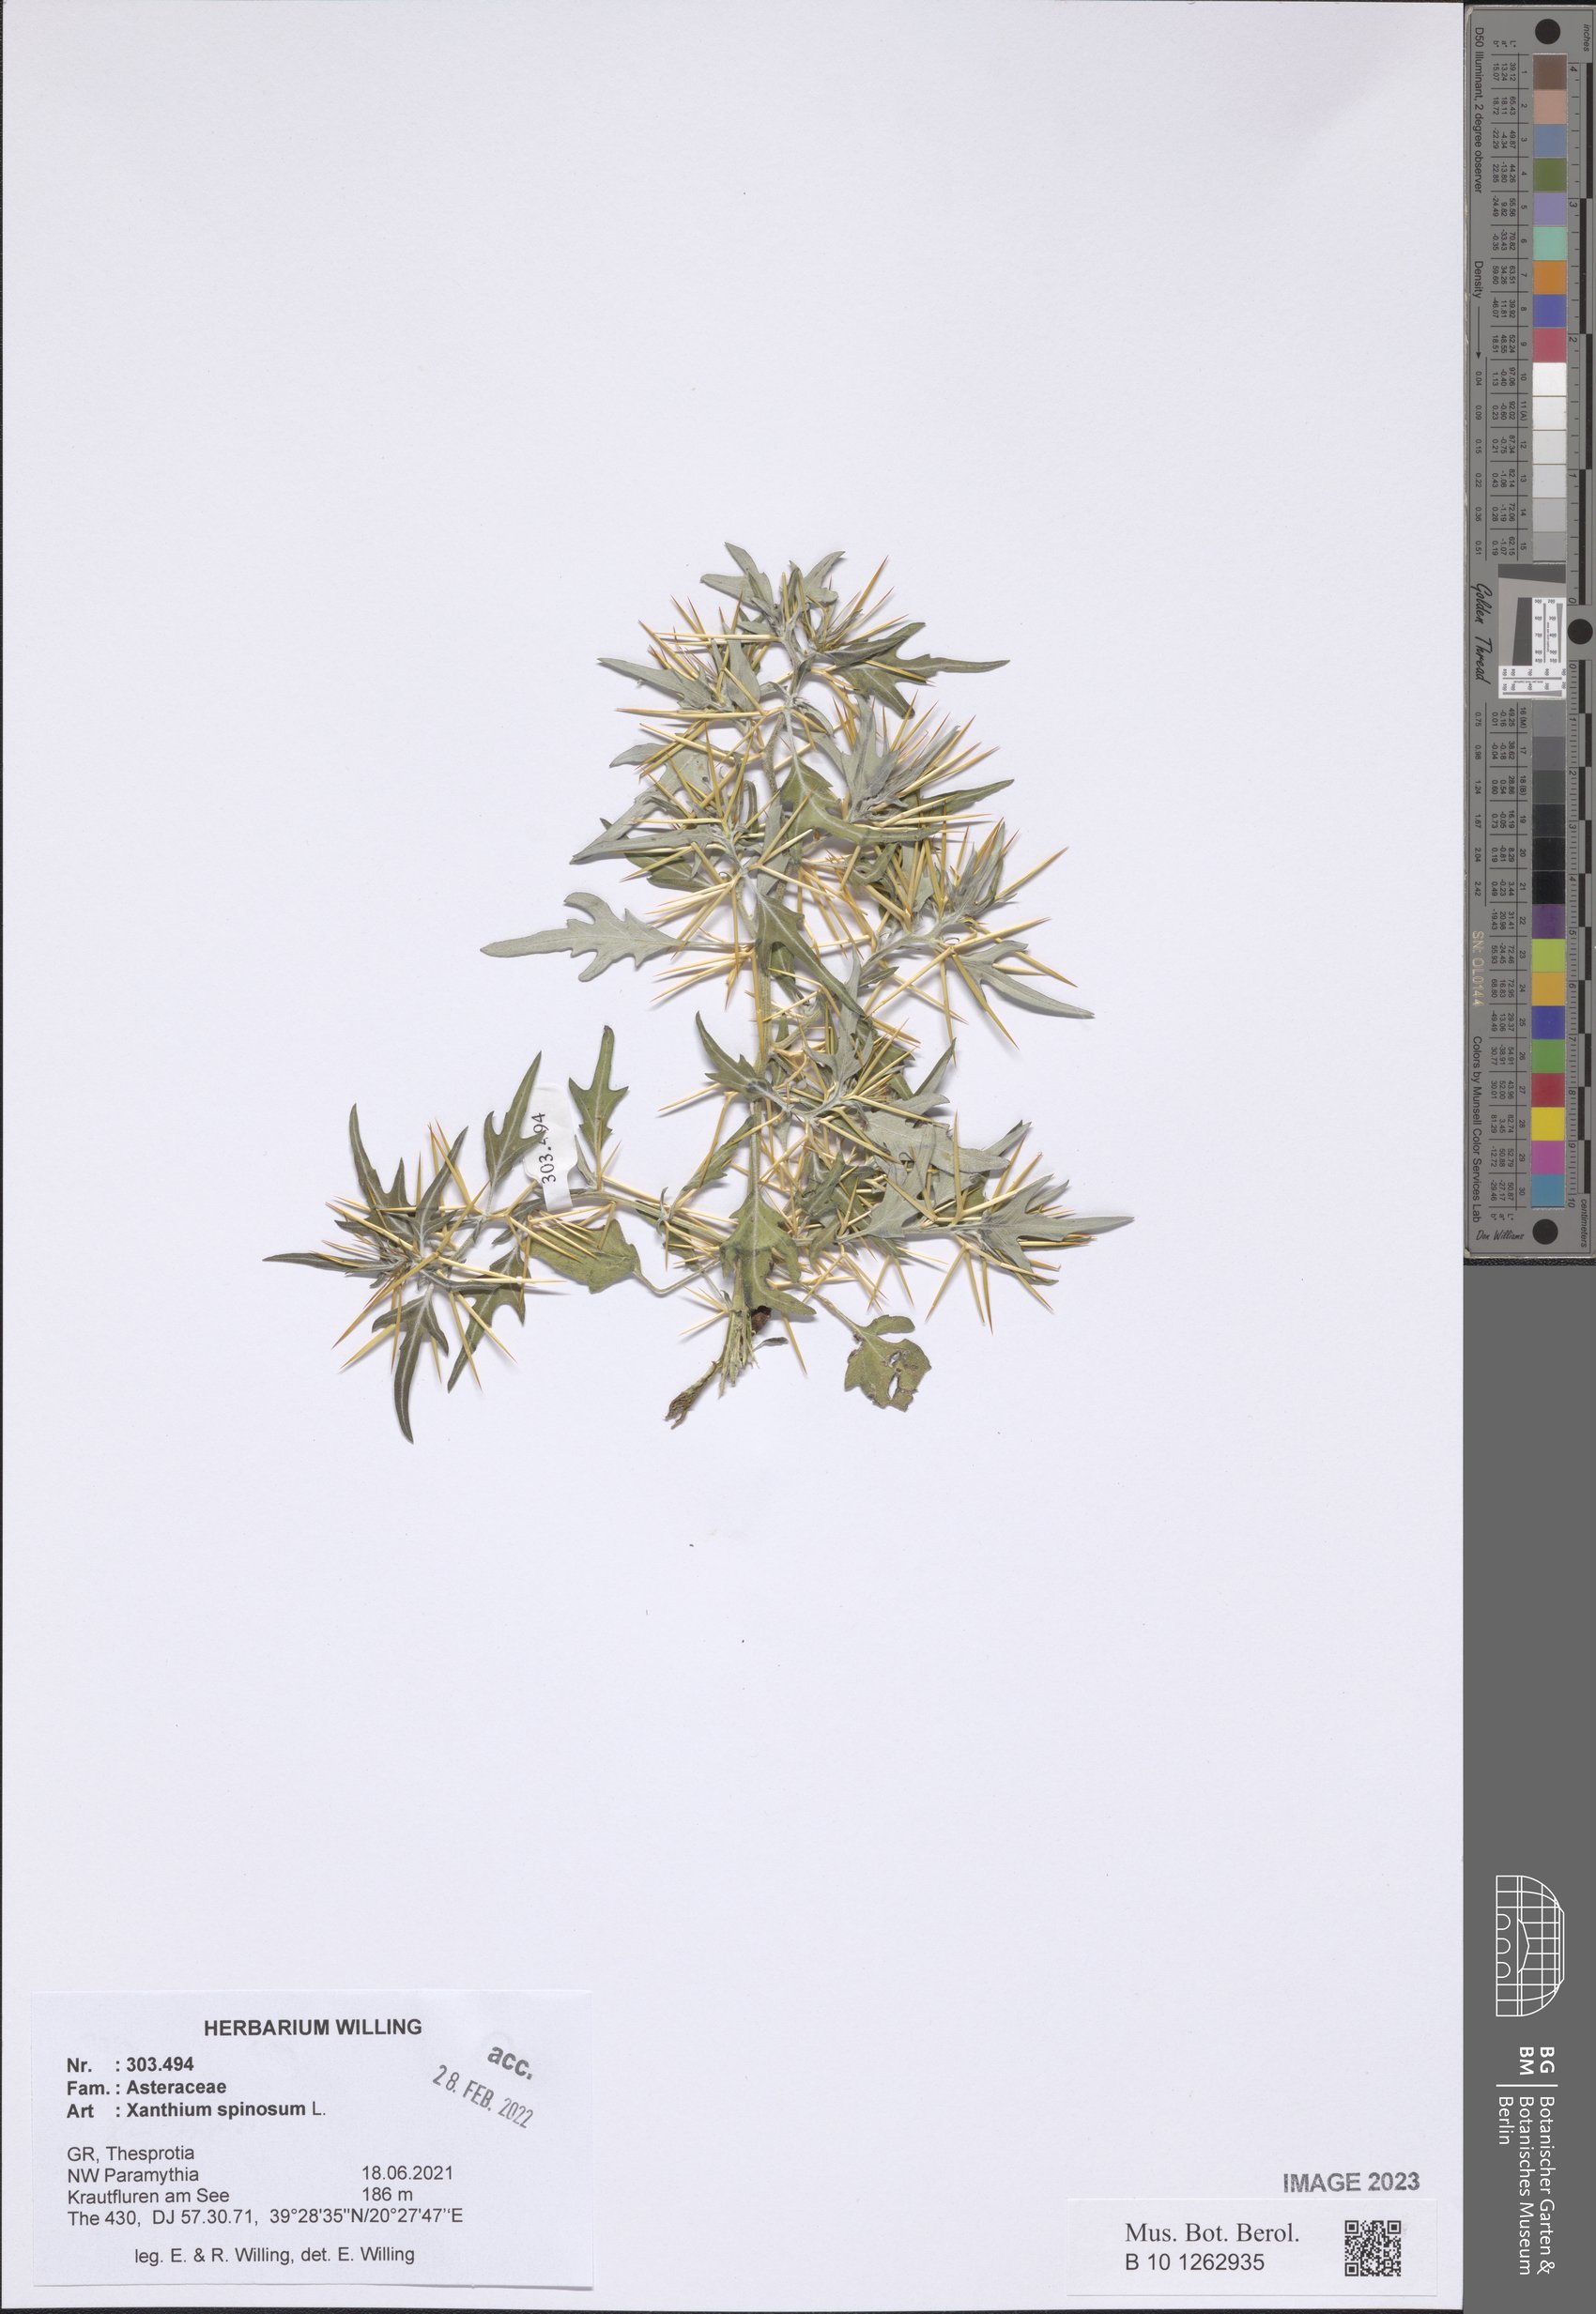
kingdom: Plantae
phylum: Tracheophyta
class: Magnoliopsida
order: Asterales
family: Asteraceae
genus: Xanthium
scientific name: Xanthium spinosum
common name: Spiny cocklebur
